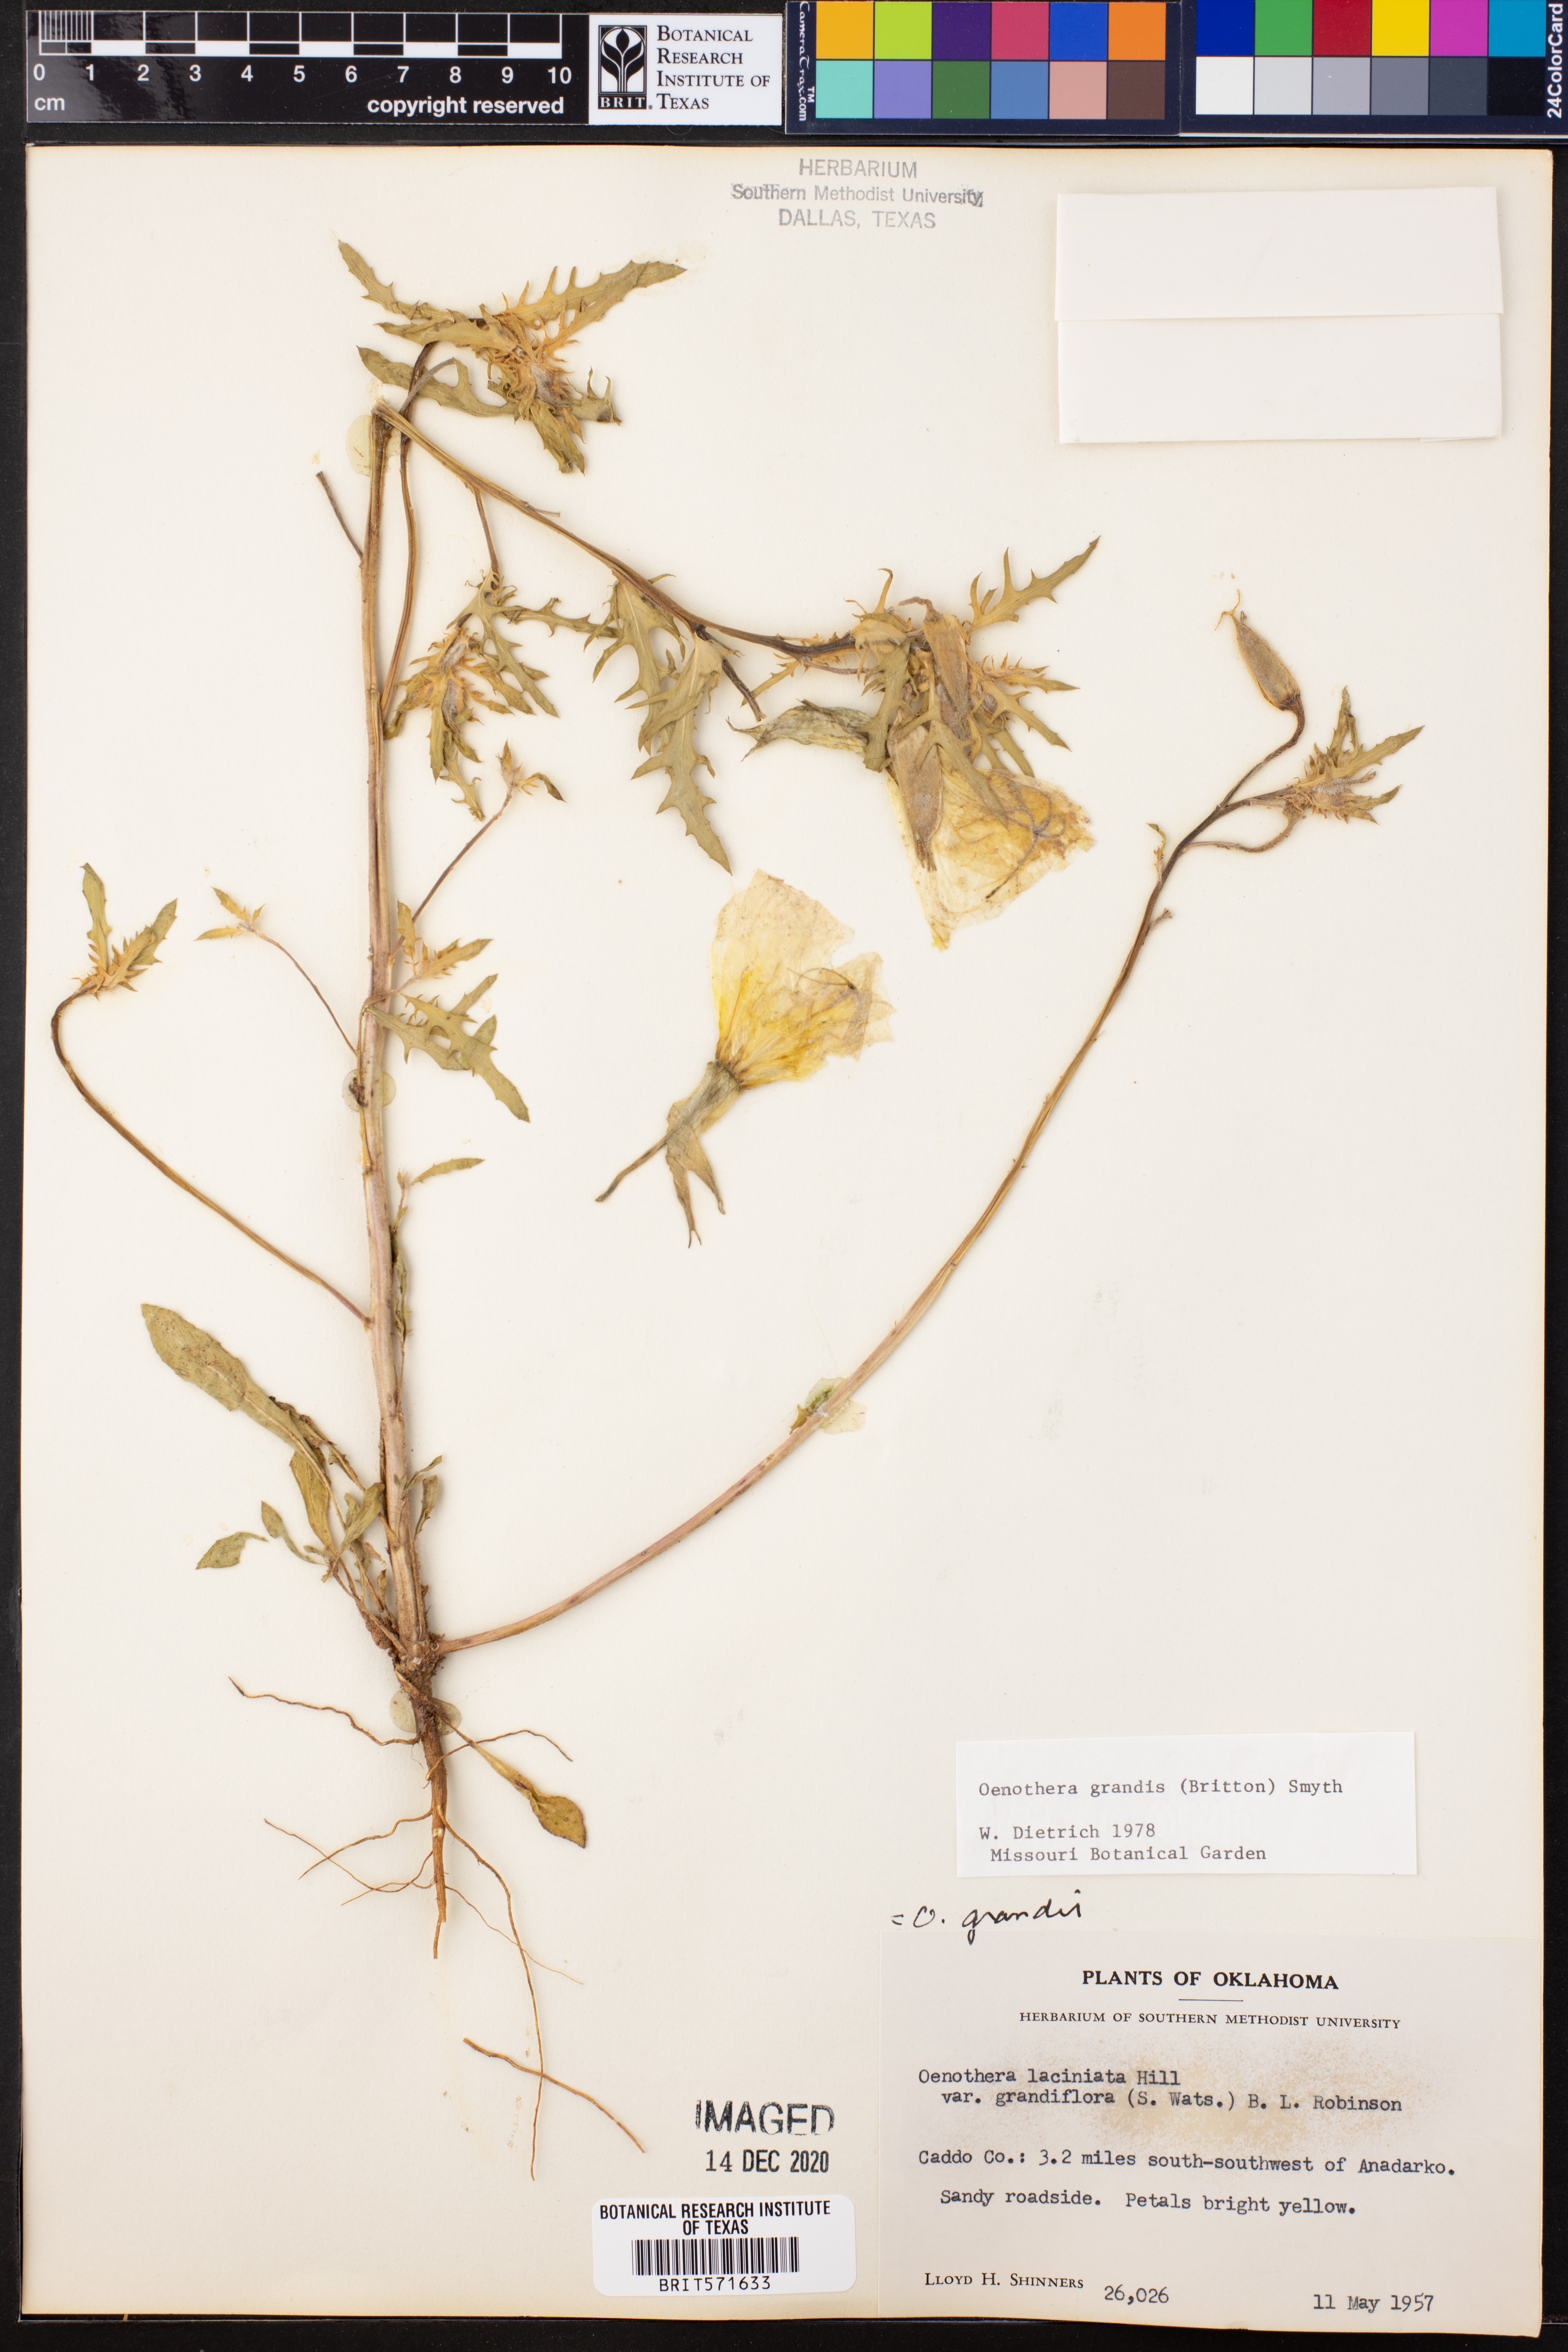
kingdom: Plantae
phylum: Tracheophyta
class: Magnoliopsida
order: Myrtales
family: Onagraceae
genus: Oenothera
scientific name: Oenothera grandis
